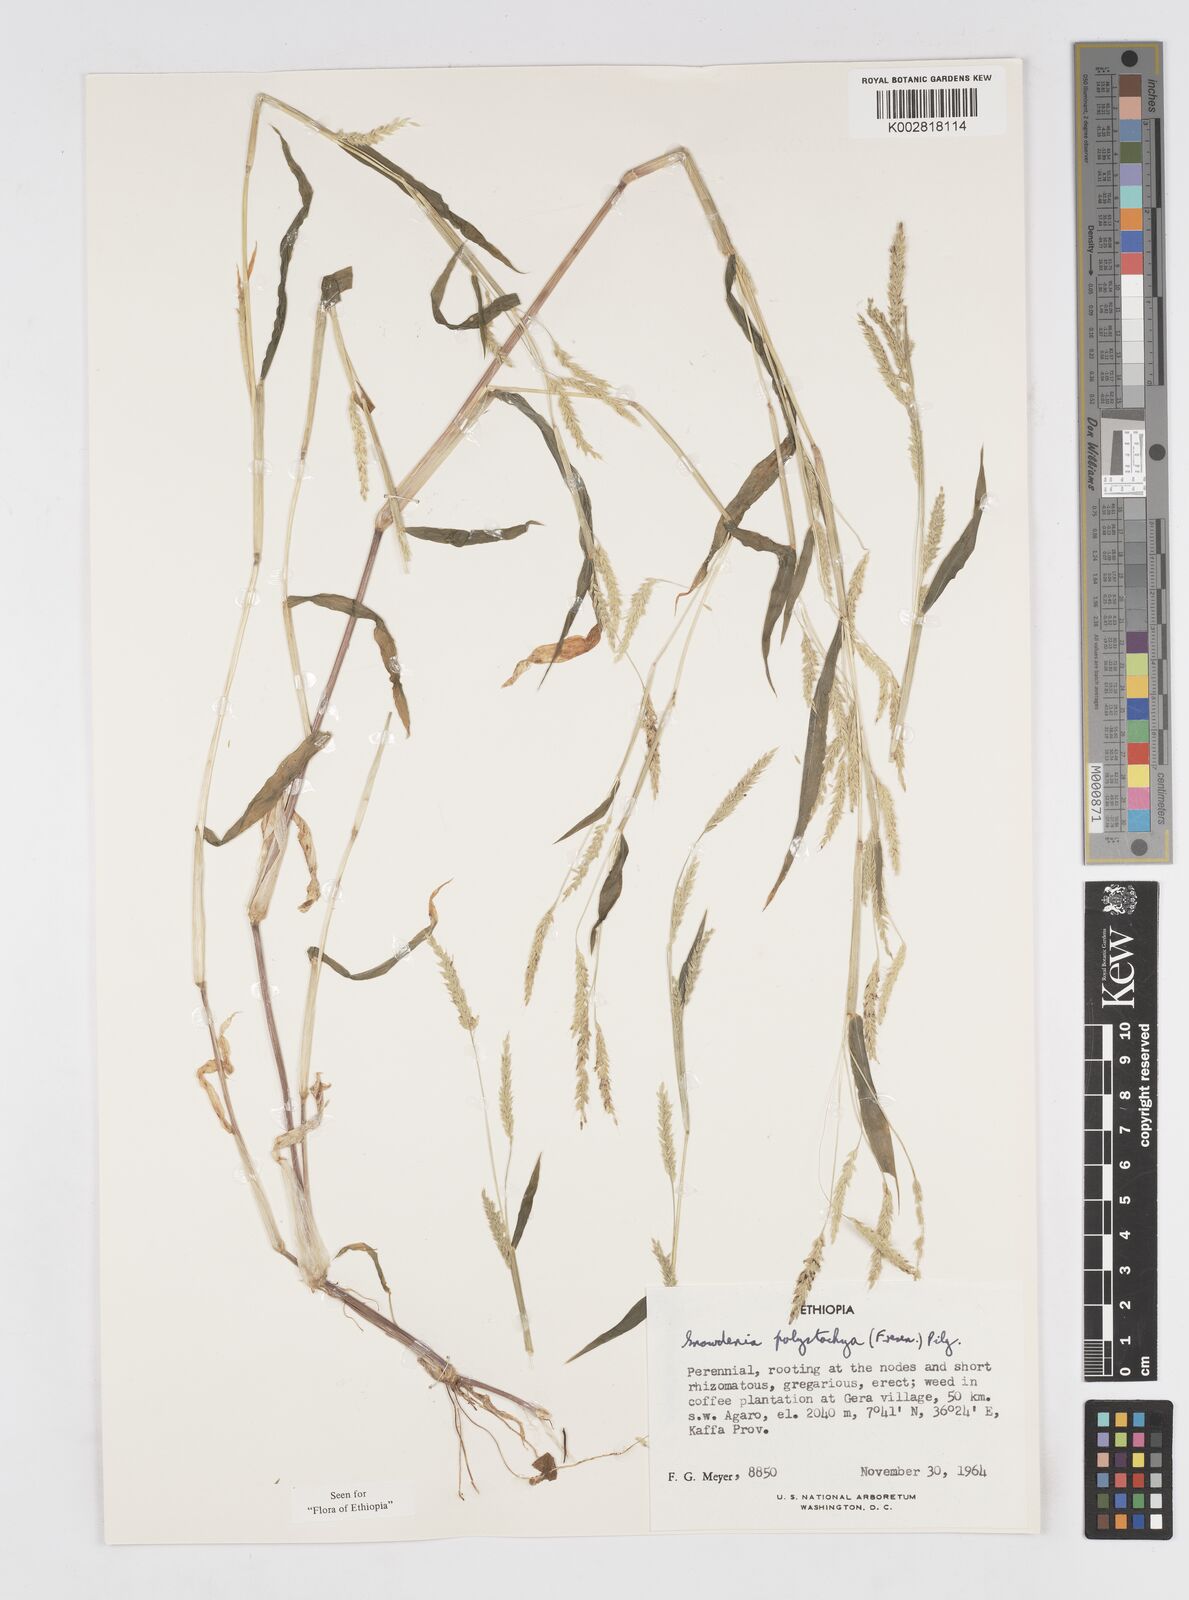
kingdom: Plantae
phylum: Tracheophyta
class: Liliopsida
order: Poales
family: Poaceae
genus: Snowdenia
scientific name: Snowdenia polystachya
